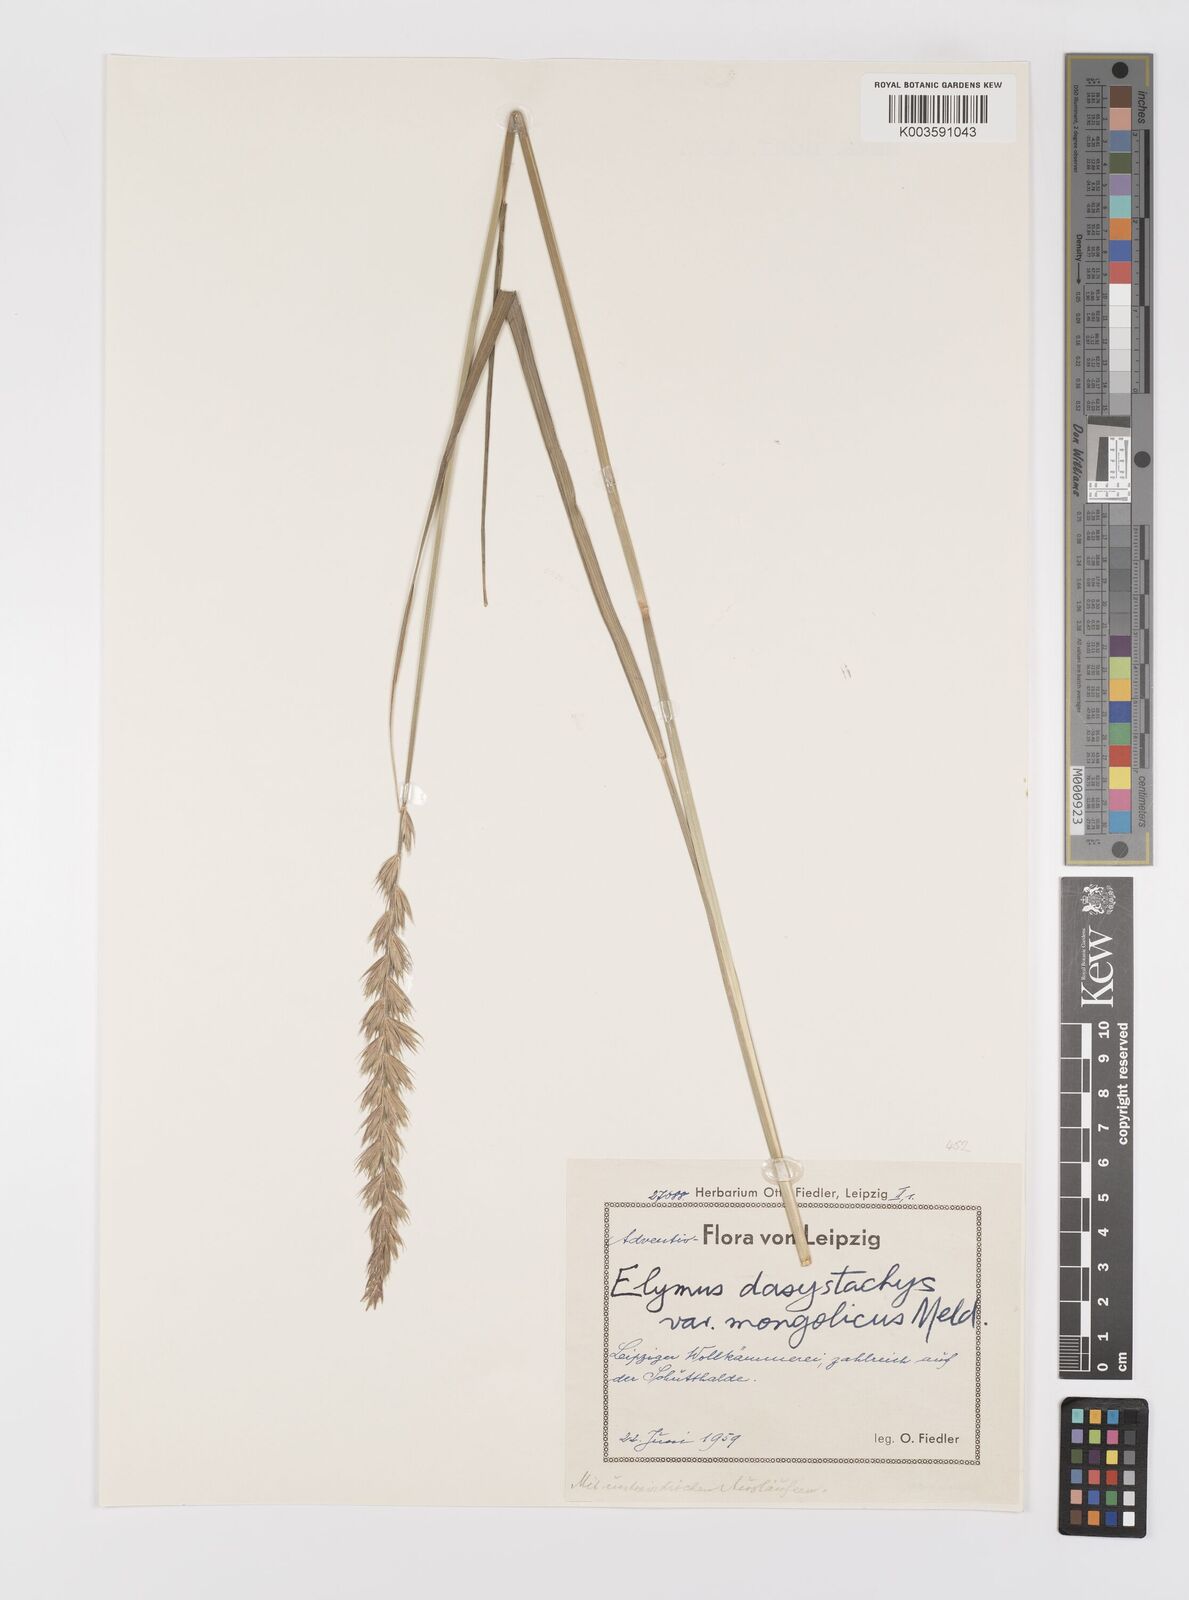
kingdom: Plantae
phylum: Tracheophyta
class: Liliopsida
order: Poales
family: Poaceae
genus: Leymus
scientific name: Leymus secalinus
